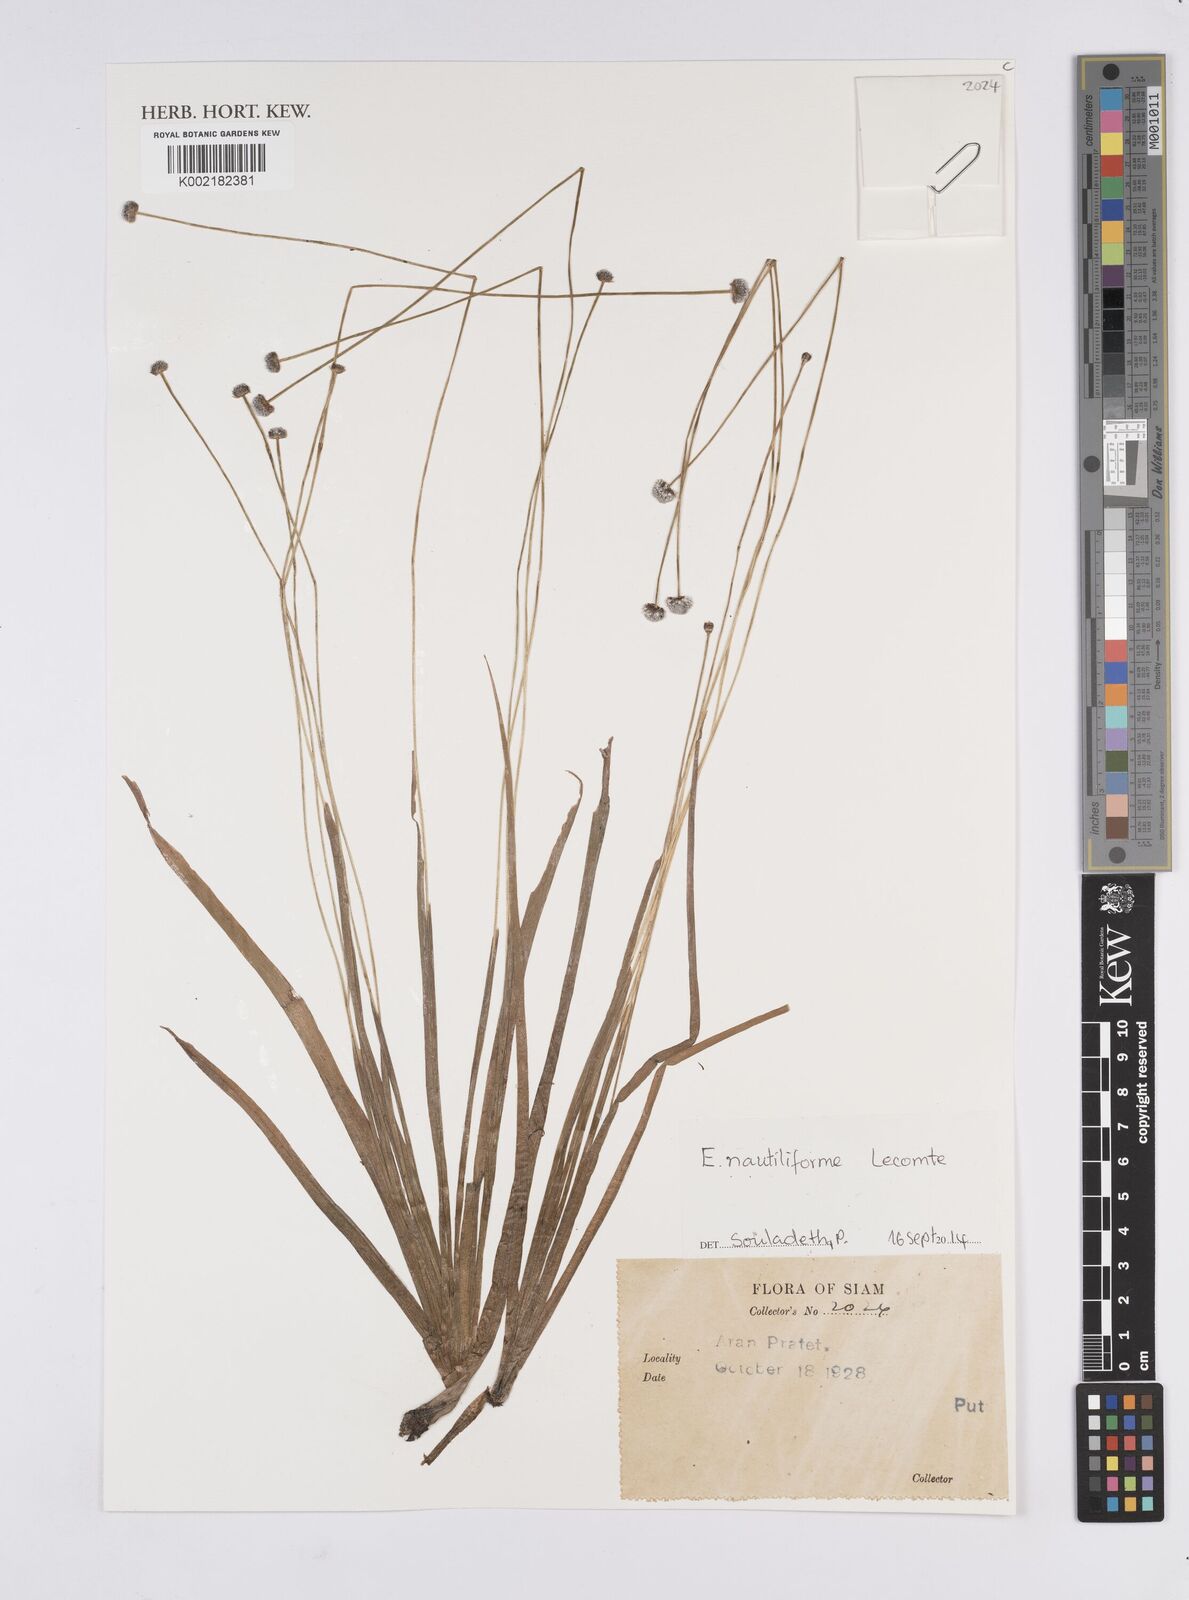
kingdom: Plantae
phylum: Tracheophyta
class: Liliopsida
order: Poales
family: Eriocaulaceae
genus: Eriocaulon
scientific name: Eriocaulon nautiliforme
